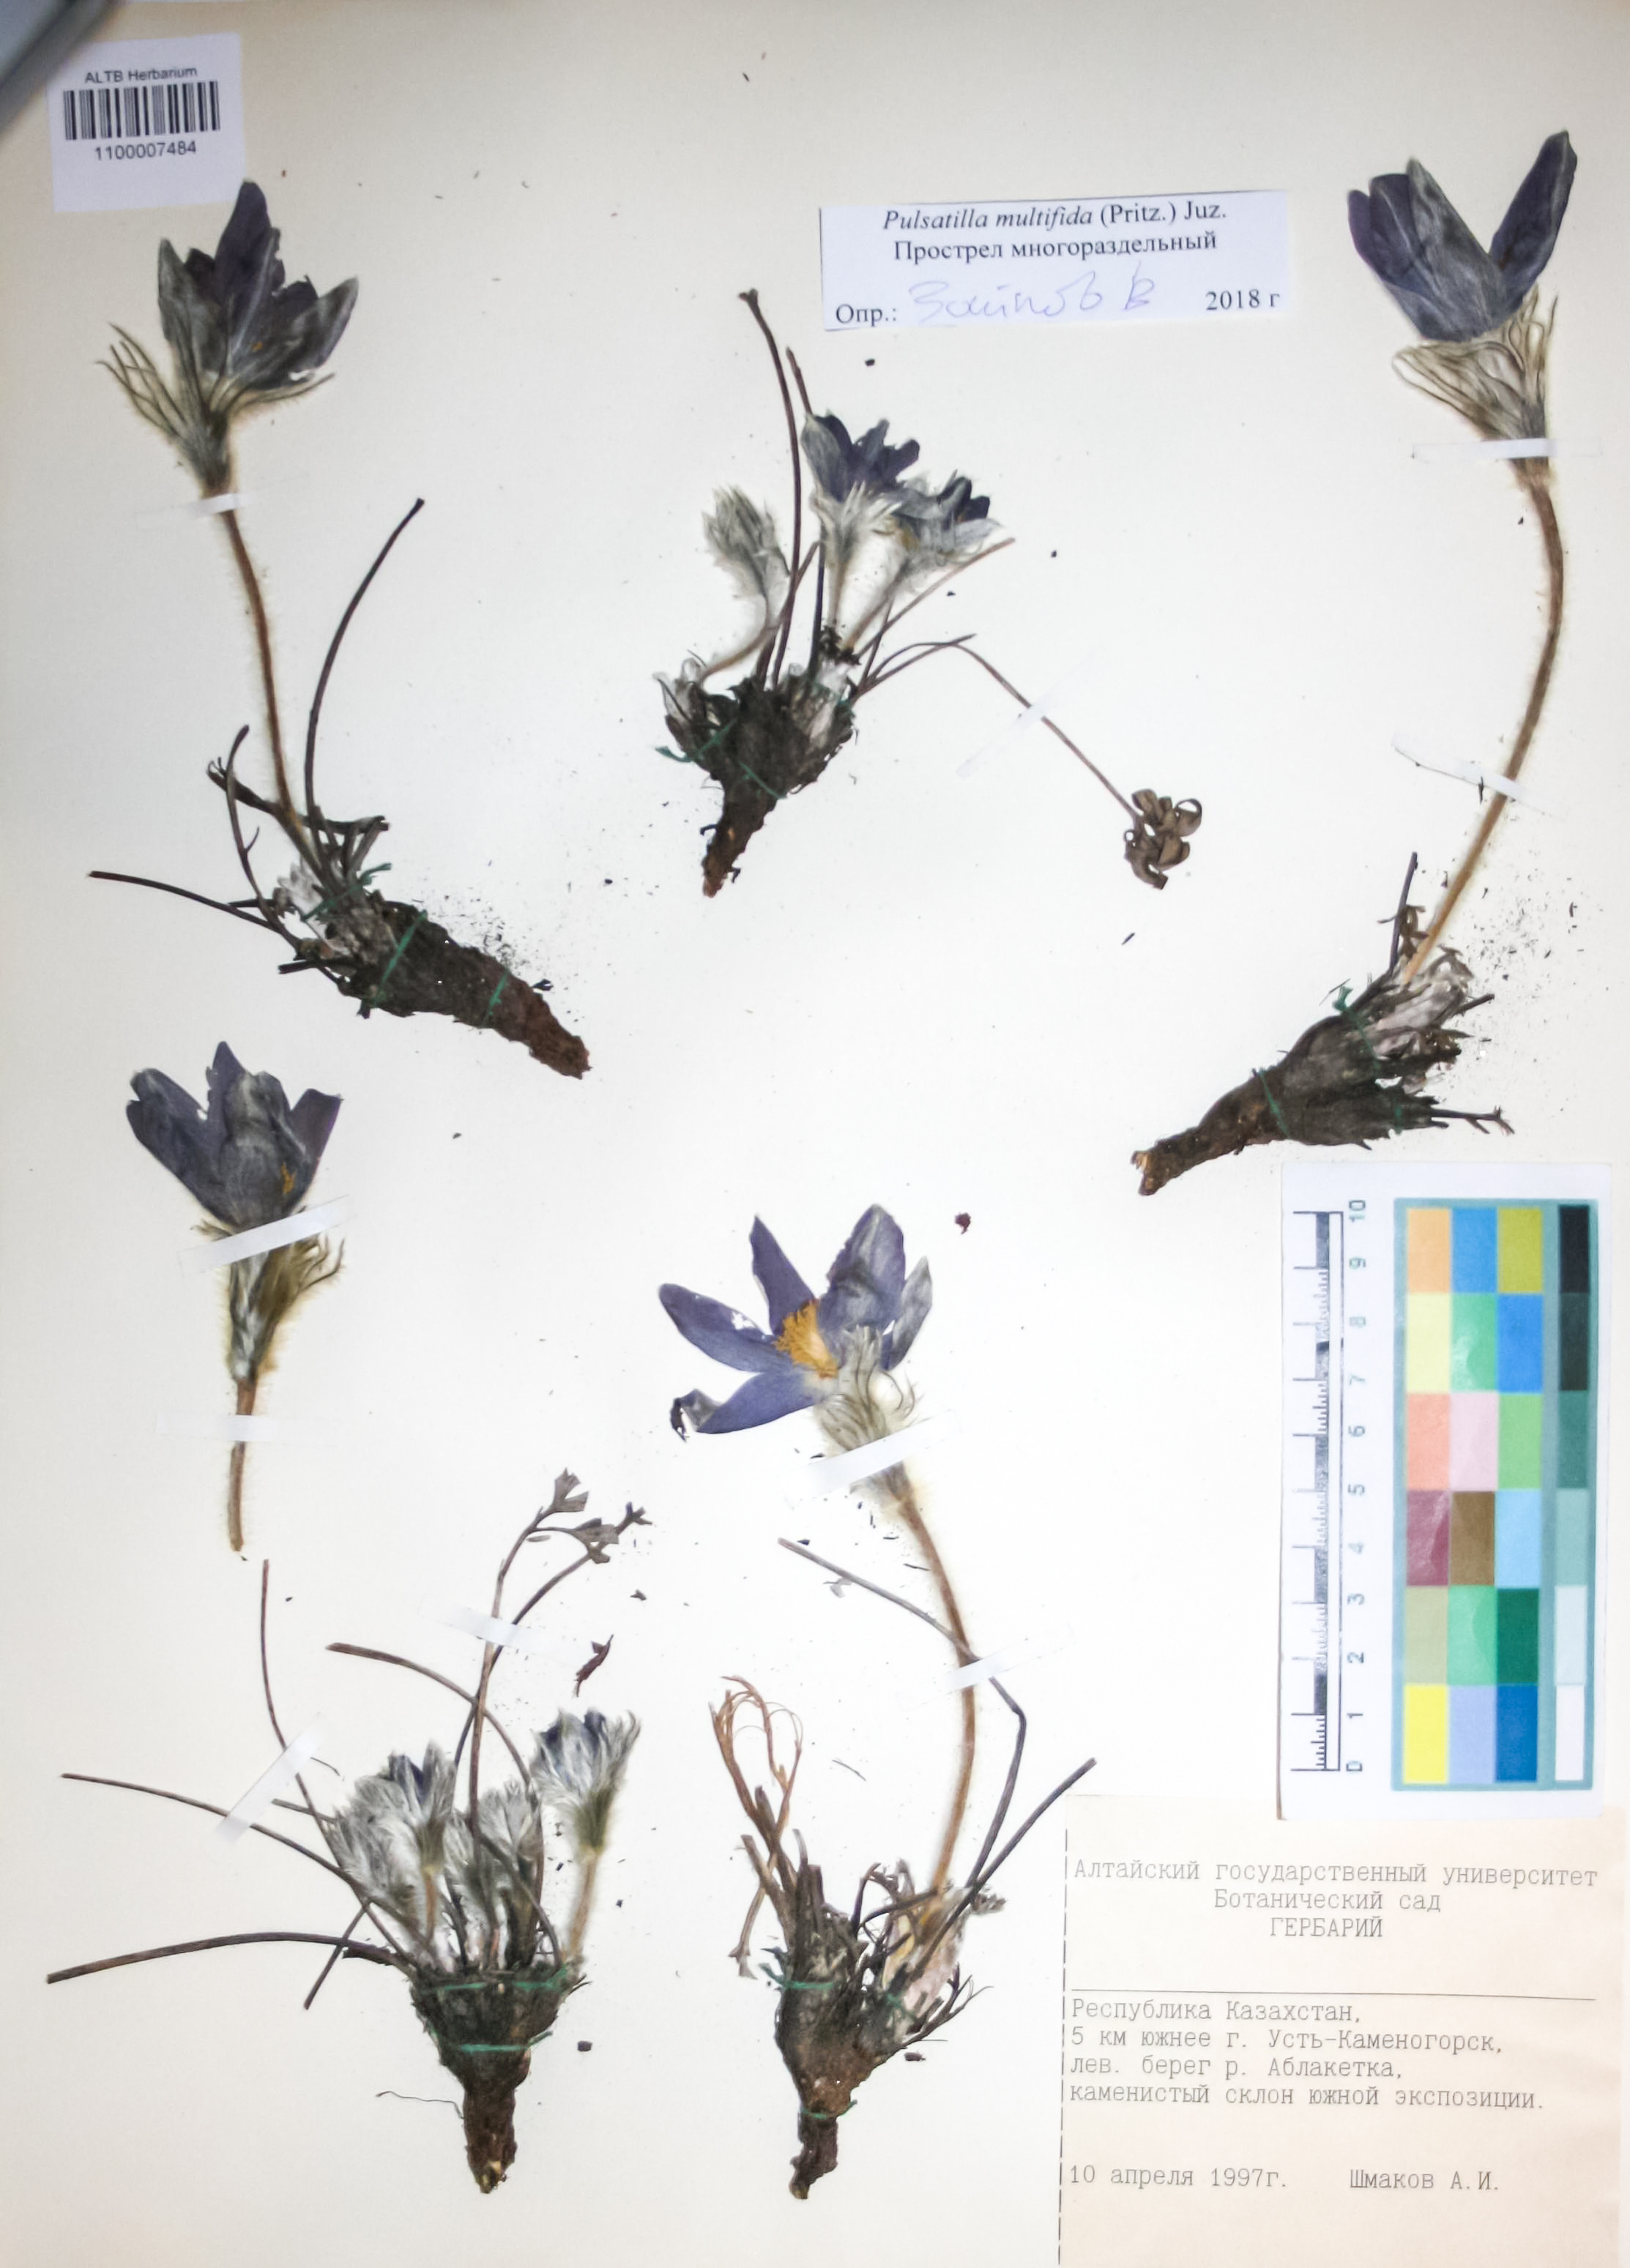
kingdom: Plantae
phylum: Tracheophyta
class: Magnoliopsida
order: Ranunculales
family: Ranunculaceae
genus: Pulsatilla
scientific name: Pulsatilla patens
